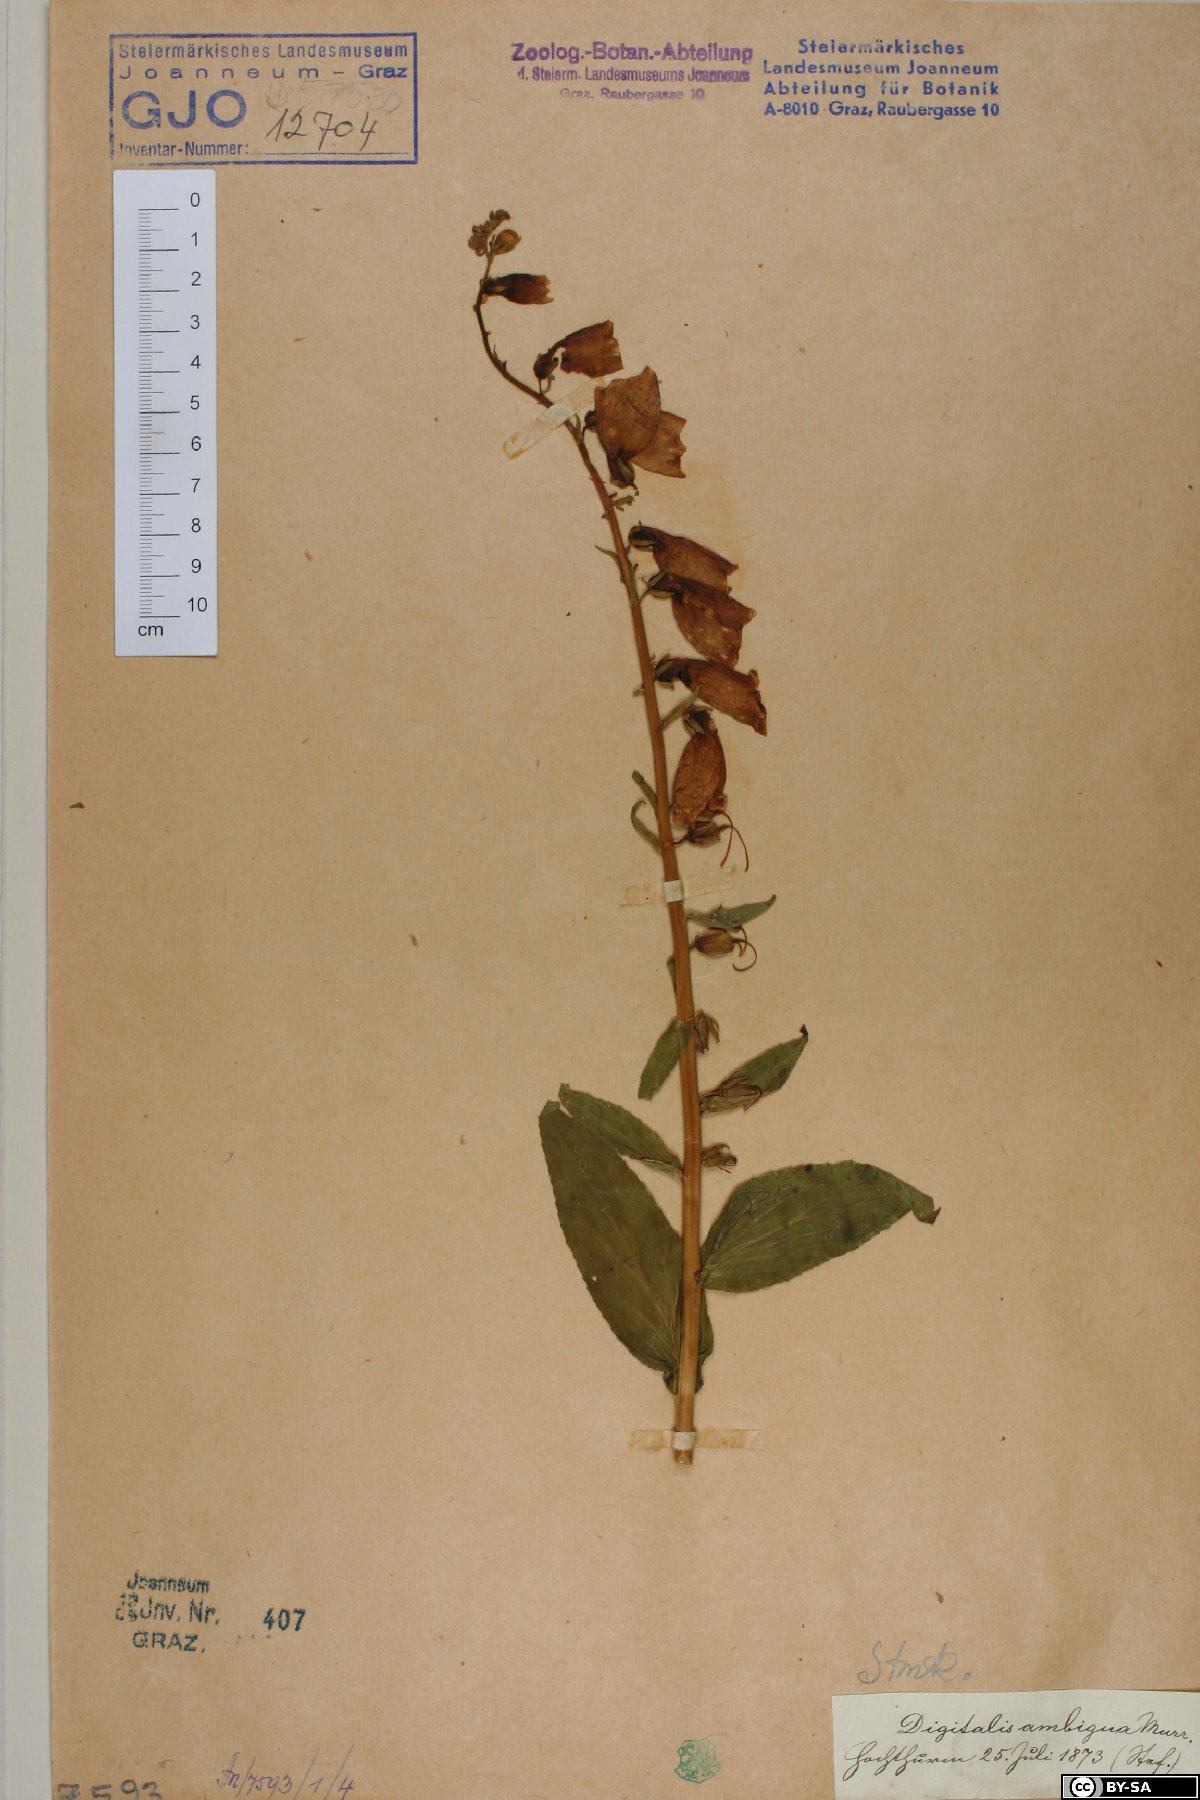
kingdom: Plantae
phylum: Tracheophyta
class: Magnoliopsida
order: Lamiales
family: Plantaginaceae
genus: Digitalis
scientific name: Digitalis grandiflora
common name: Yellow foxglove
